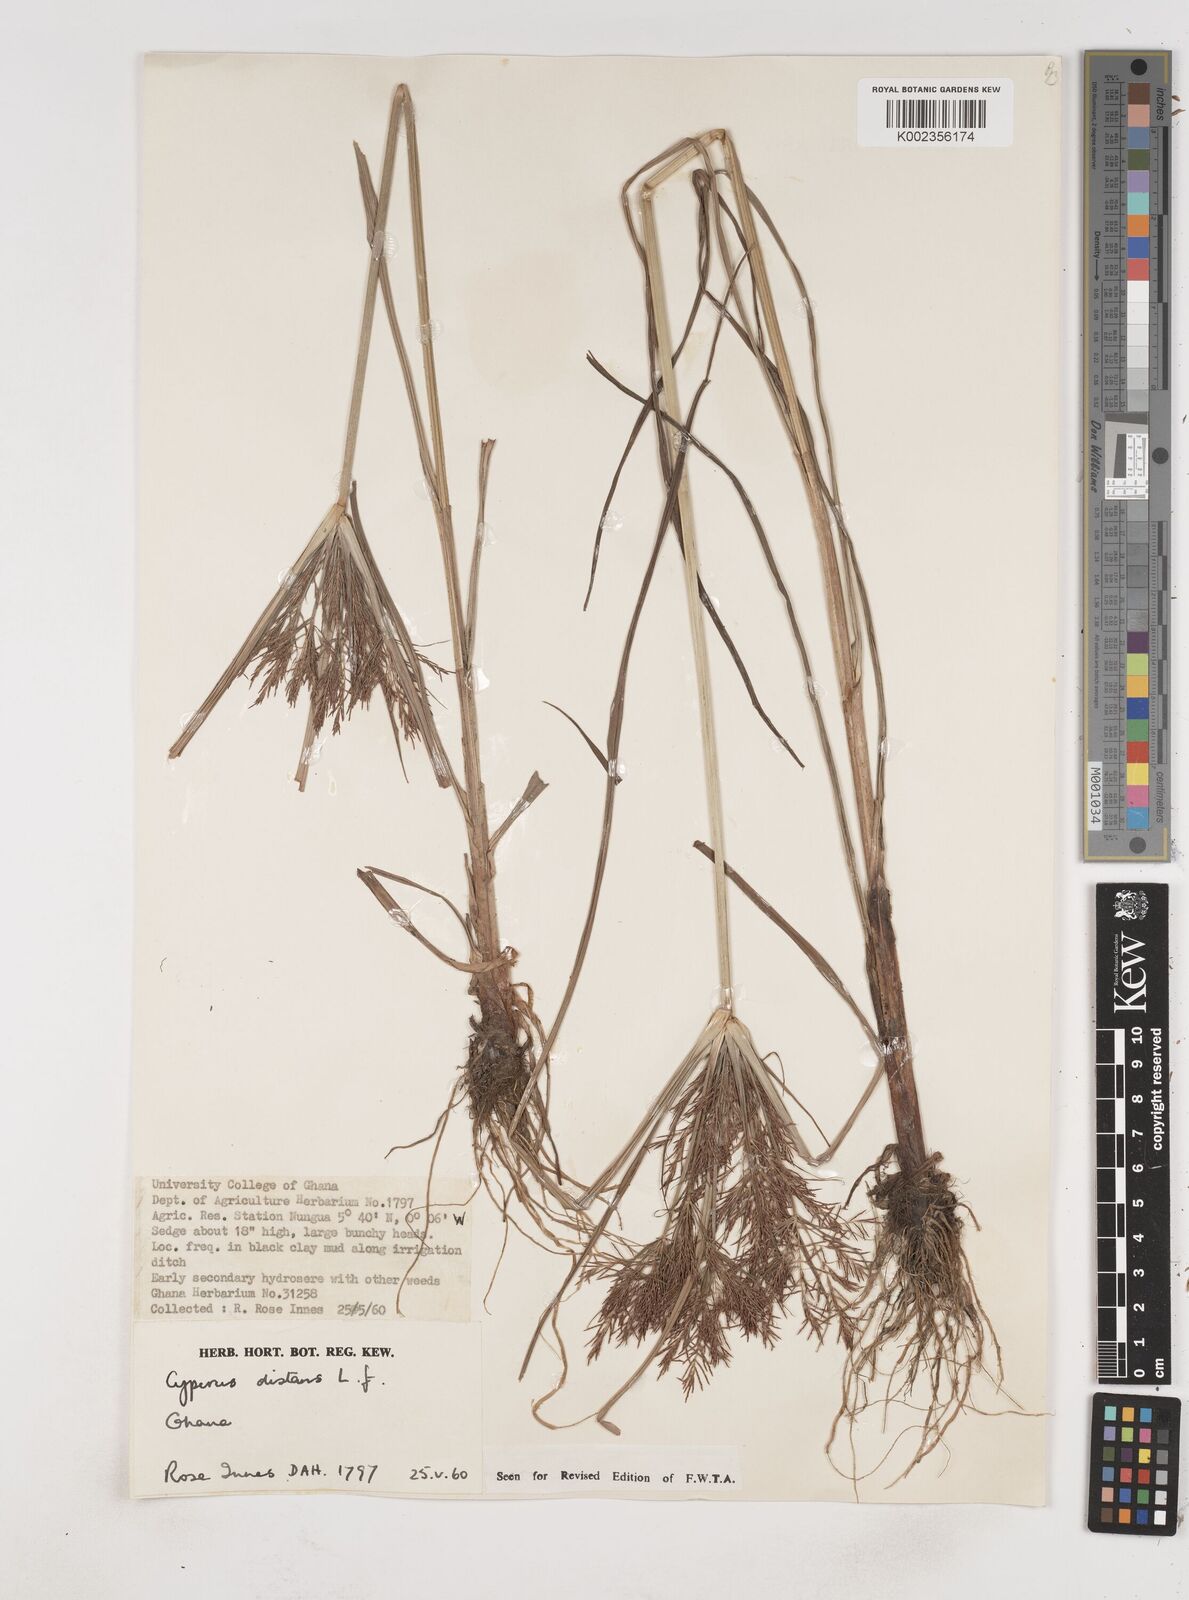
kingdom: Plantae
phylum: Tracheophyta
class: Liliopsida
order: Poales
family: Cyperaceae
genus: Cyperus
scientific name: Cyperus distans
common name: Slender cyperus
